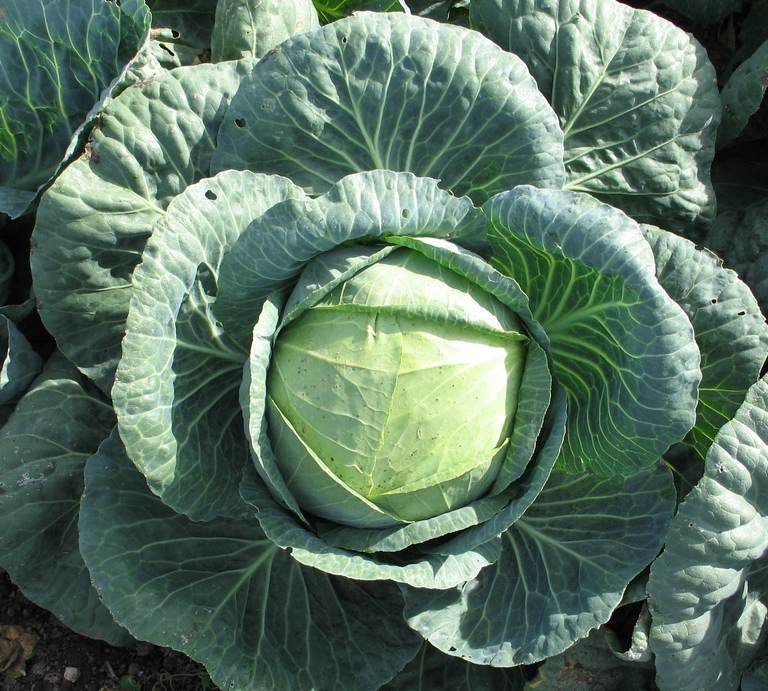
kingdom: Plantae
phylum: Tracheophyta
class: Magnoliopsida
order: Brassicales
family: Brassicaceae
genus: Brassica
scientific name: Brassica oleracea
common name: Cabbage
